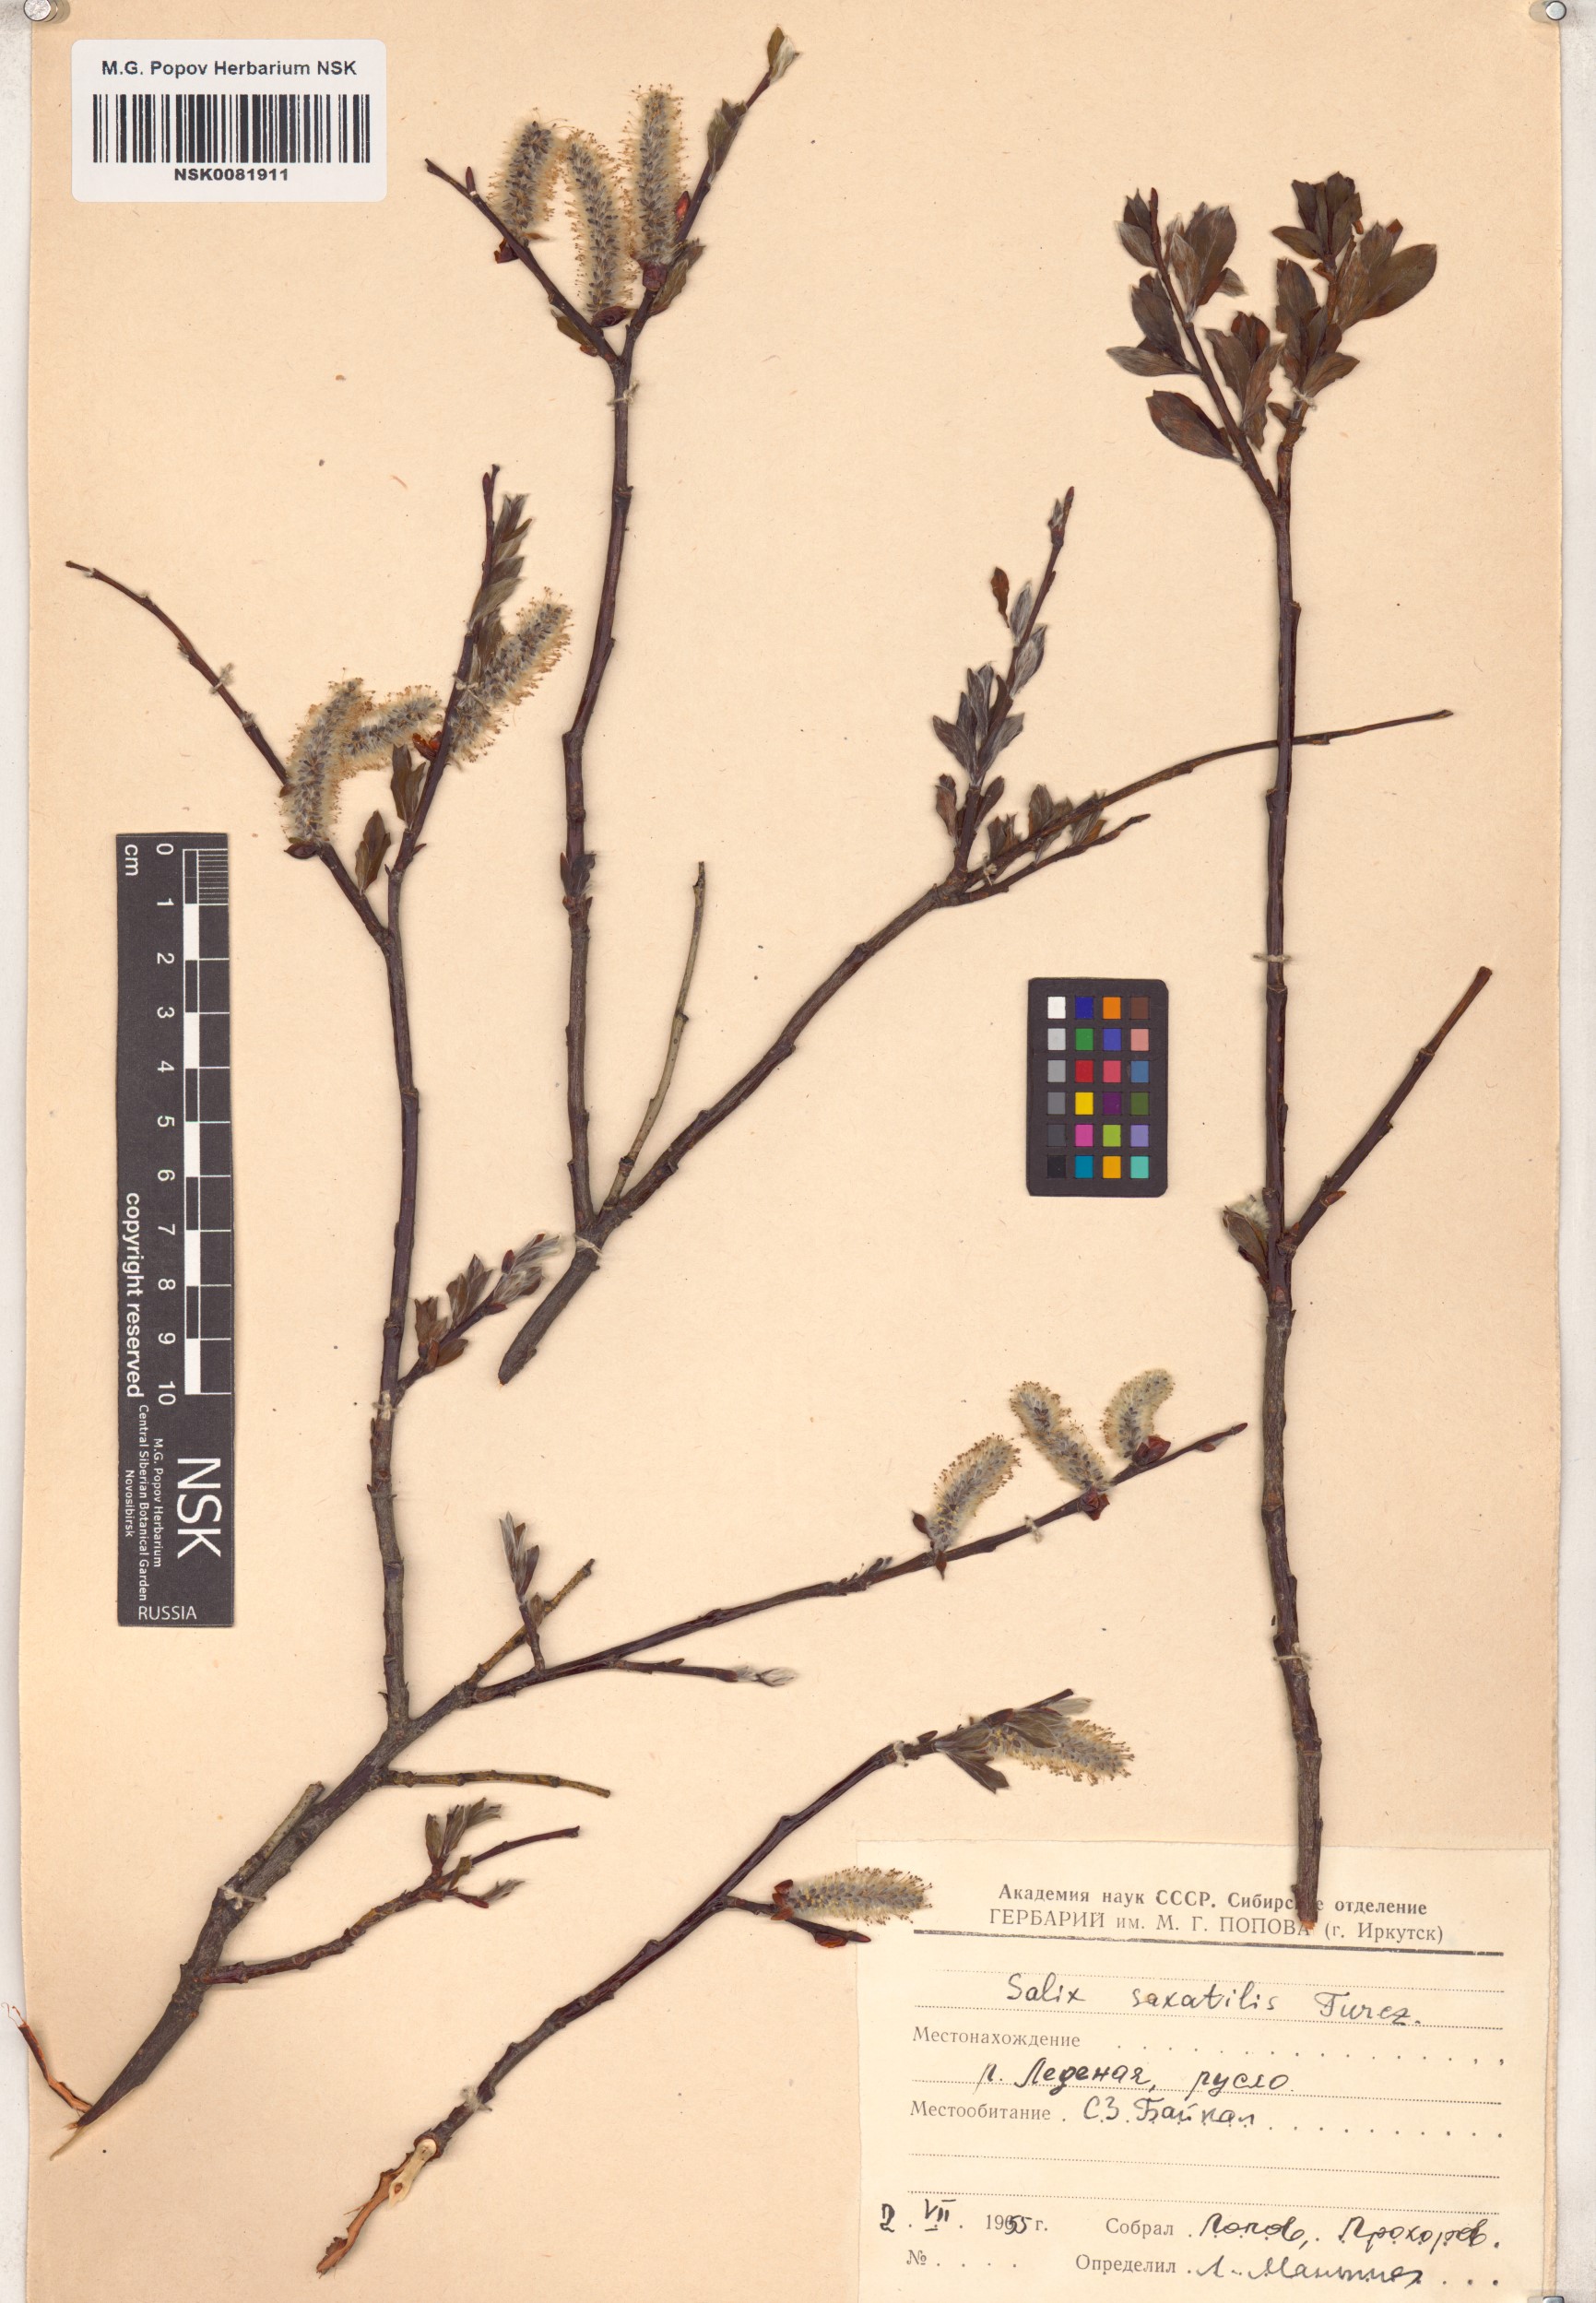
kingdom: Plantae
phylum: Tracheophyta
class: Magnoliopsida
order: Malpighiales
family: Salicaceae
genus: Salix
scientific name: Salix saxatilis
